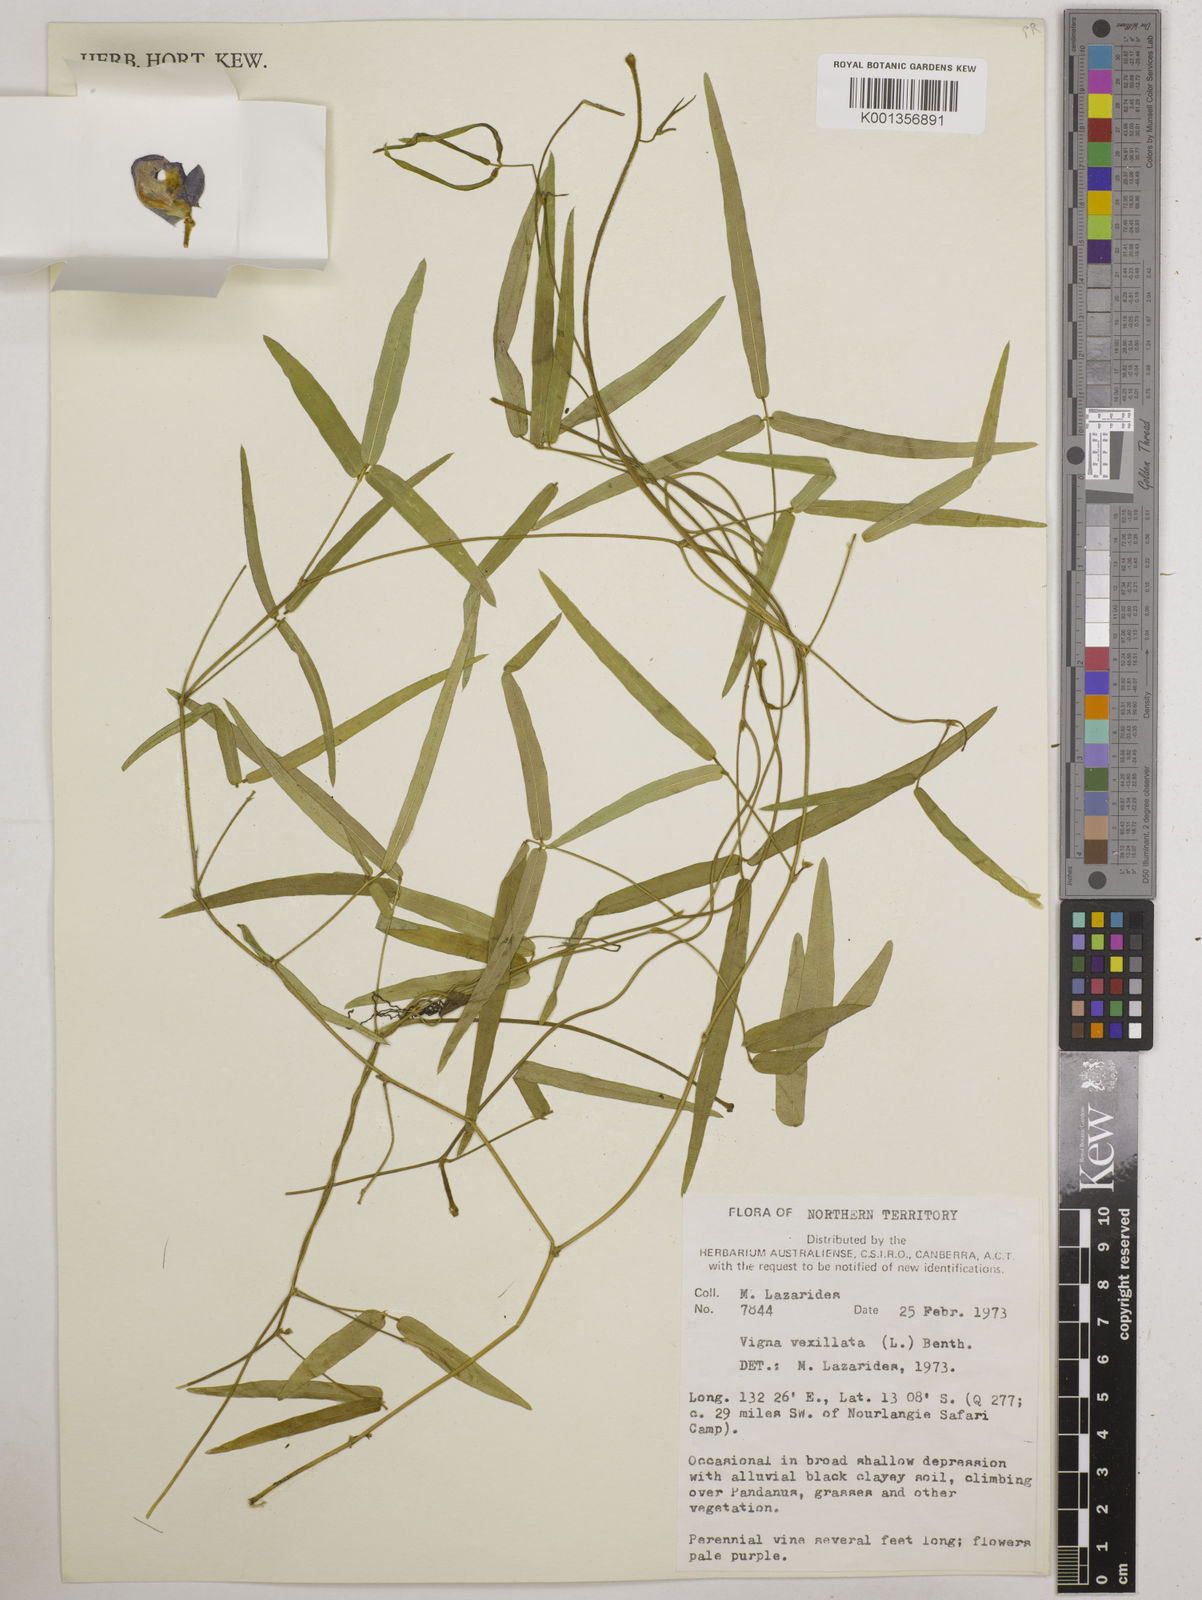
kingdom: Plantae
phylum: Tracheophyta
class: Magnoliopsida
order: Fabales
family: Fabaceae
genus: Vigna
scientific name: Vigna vexillata
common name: Zombi pea
